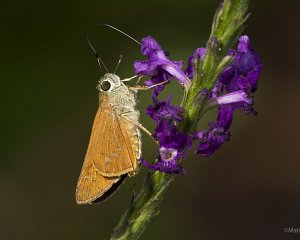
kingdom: Animalia
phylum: Arthropoda
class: Insecta
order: Lepidoptera
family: Hesperiidae
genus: Calpodes
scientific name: Calpodes ethlius
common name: Brazilian Skipper
